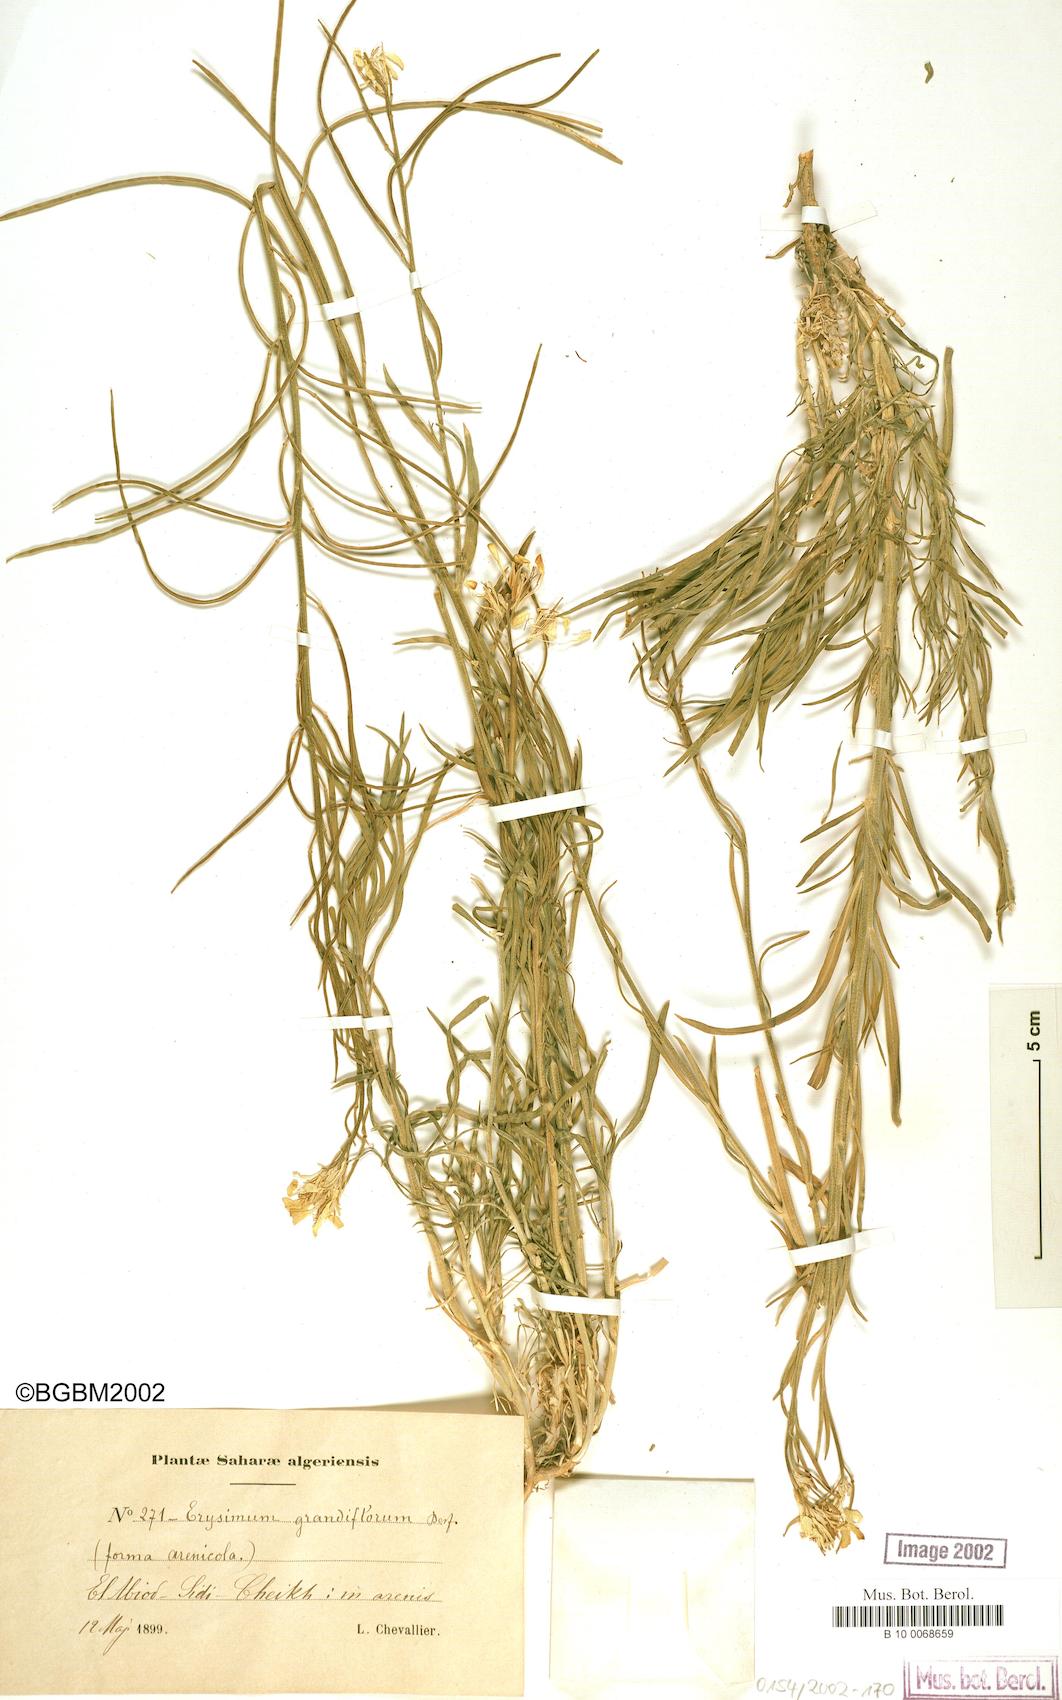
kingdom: Plantae
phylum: Tracheophyta
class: Magnoliopsida
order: Brassicales
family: Brassicaceae
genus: Erysimum
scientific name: Erysimum nervosum
